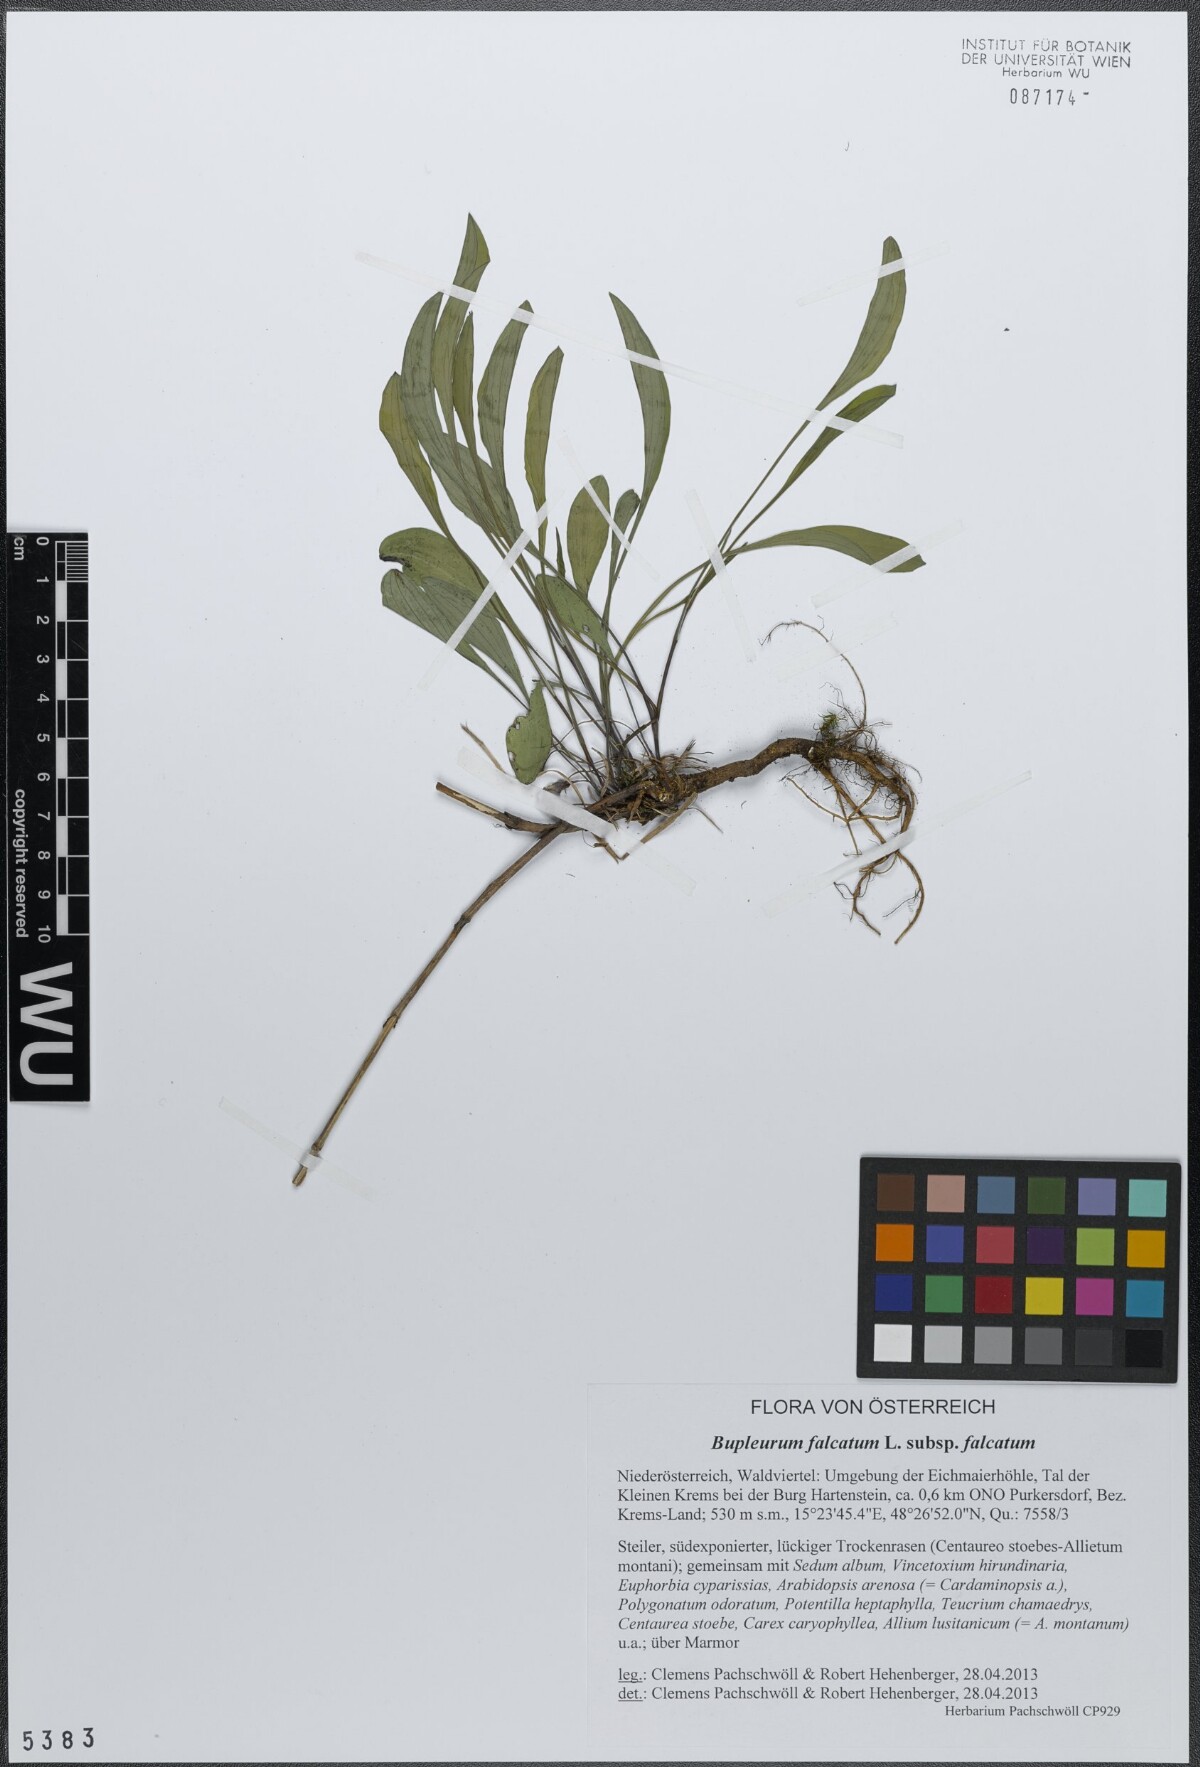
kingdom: Plantae
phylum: Tracheophyta
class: Magnoliopsida
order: Apiales
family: Apiaceae
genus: Bupleurum
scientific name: Bupleurum falcatum
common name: Sickle-leaved hare's-ear
